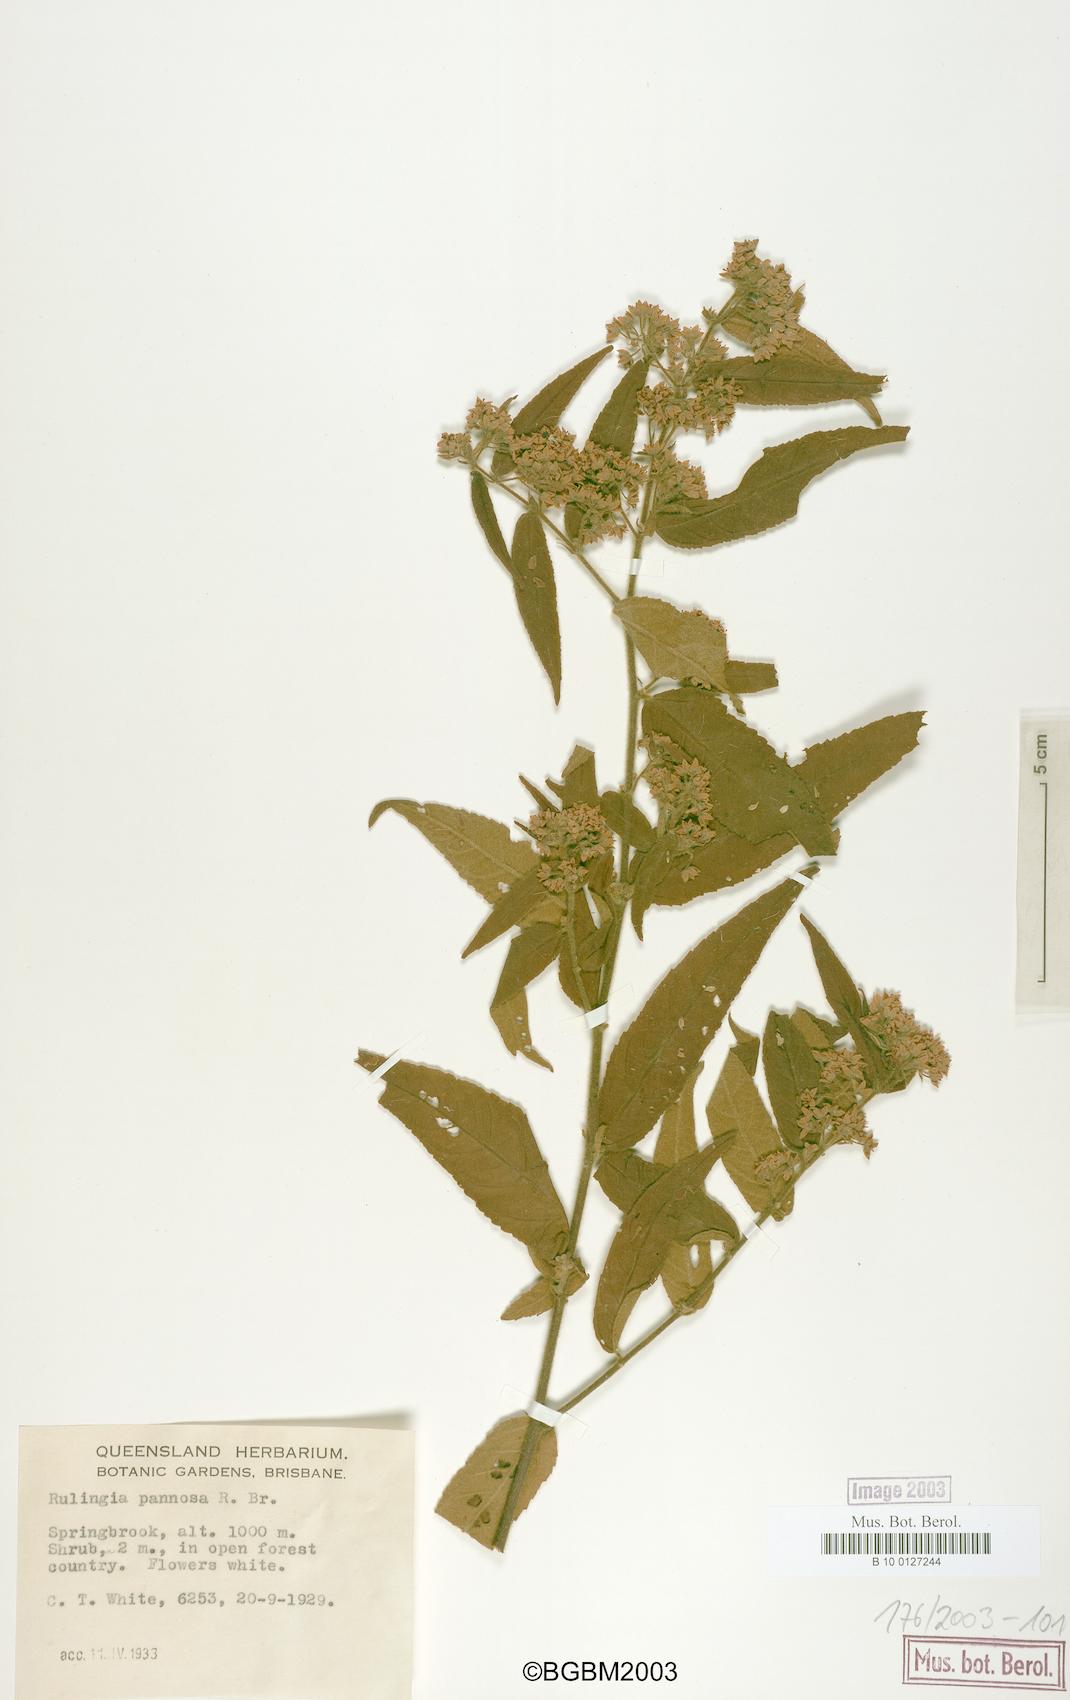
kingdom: Plantae
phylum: Tracheophyta
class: Magnoliopsida
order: Malvales
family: Malvaceae
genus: Commersonia
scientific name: Commersonia dasyphylla
